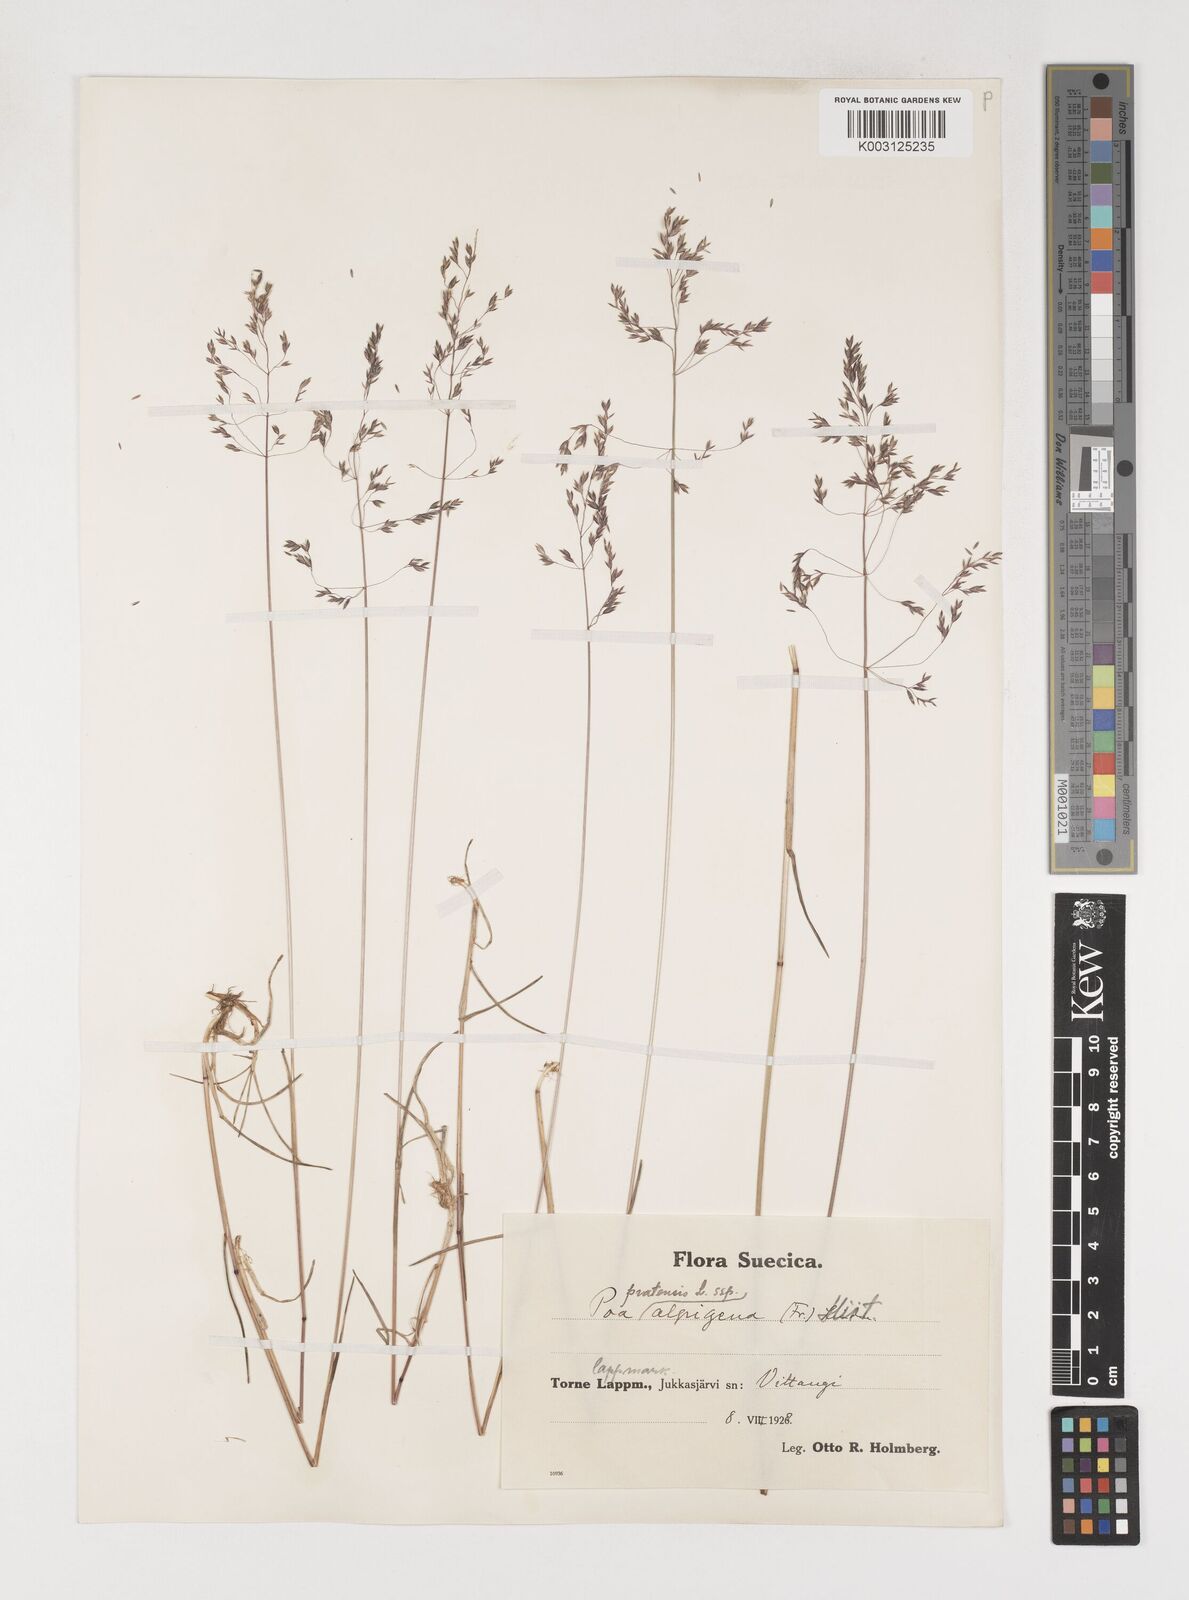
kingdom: Plantae
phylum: Tracheophyta
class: Liliopsida
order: Poales
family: Poaceae
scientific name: Poaceae
